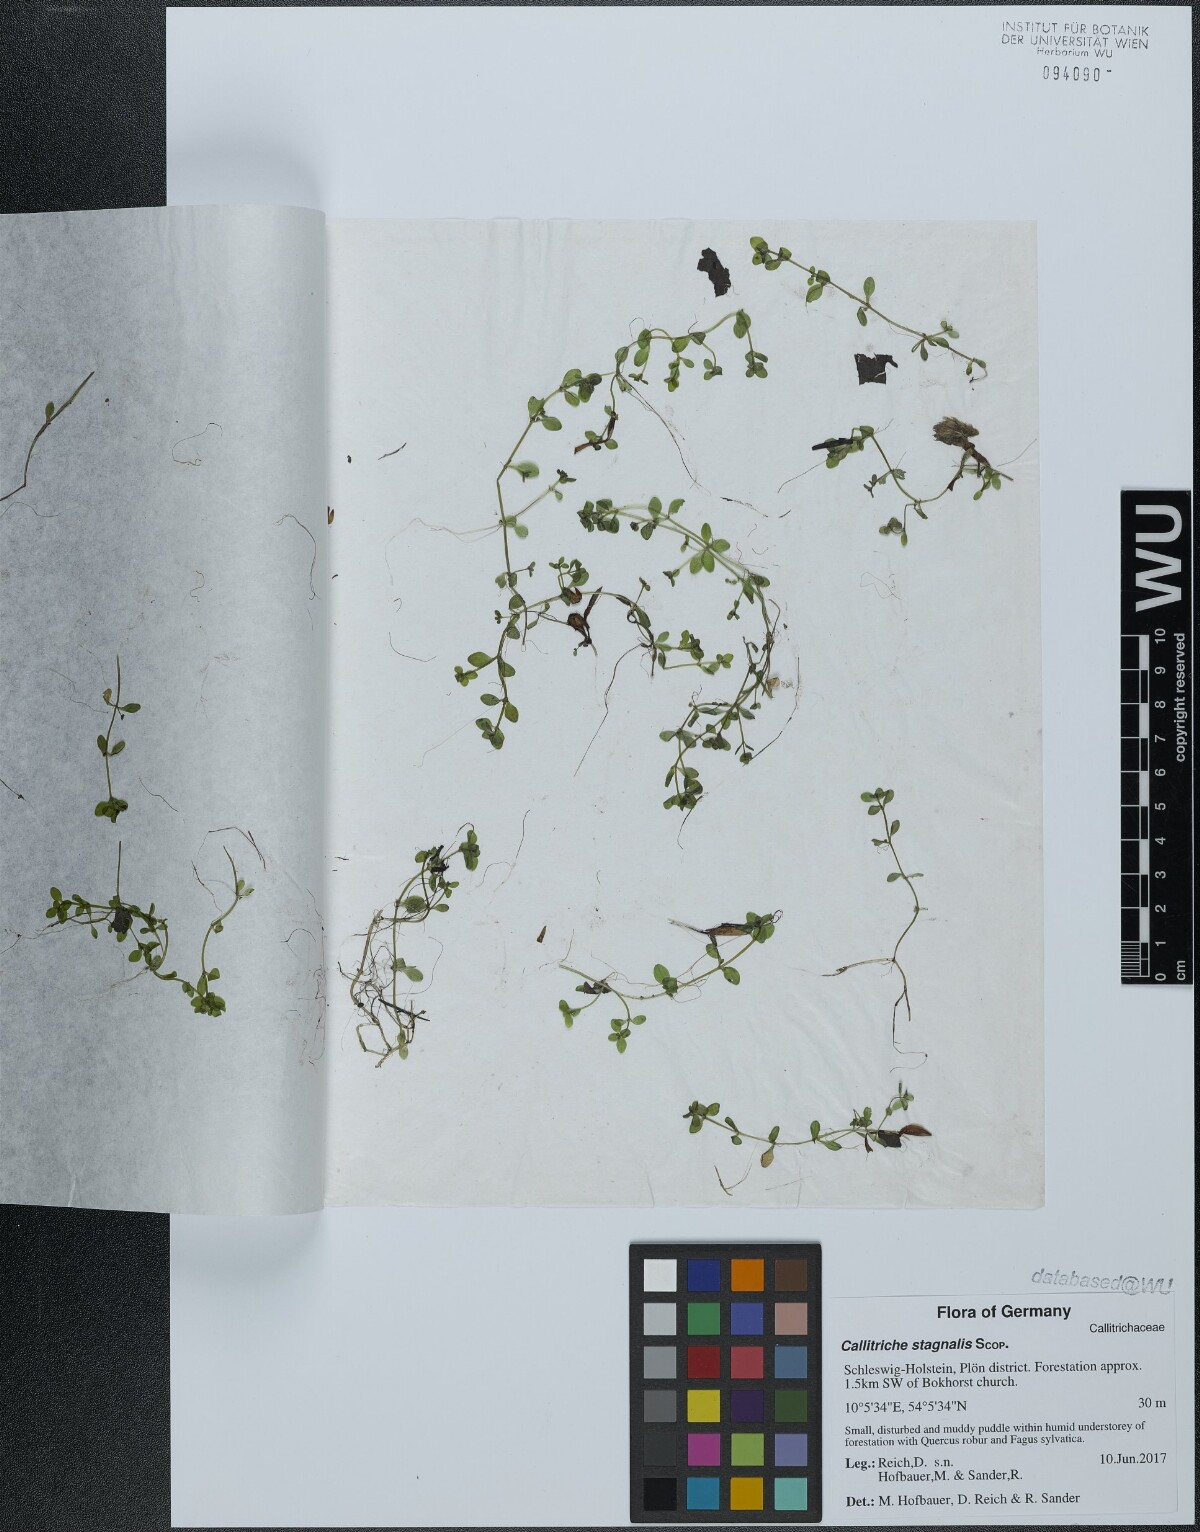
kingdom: Plantae
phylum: Tracheophyta
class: Magnoliopsida
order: Lamiales
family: Plantaginaceae
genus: Callitriche
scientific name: Callitriche stagnalis
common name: Common water-starwort
